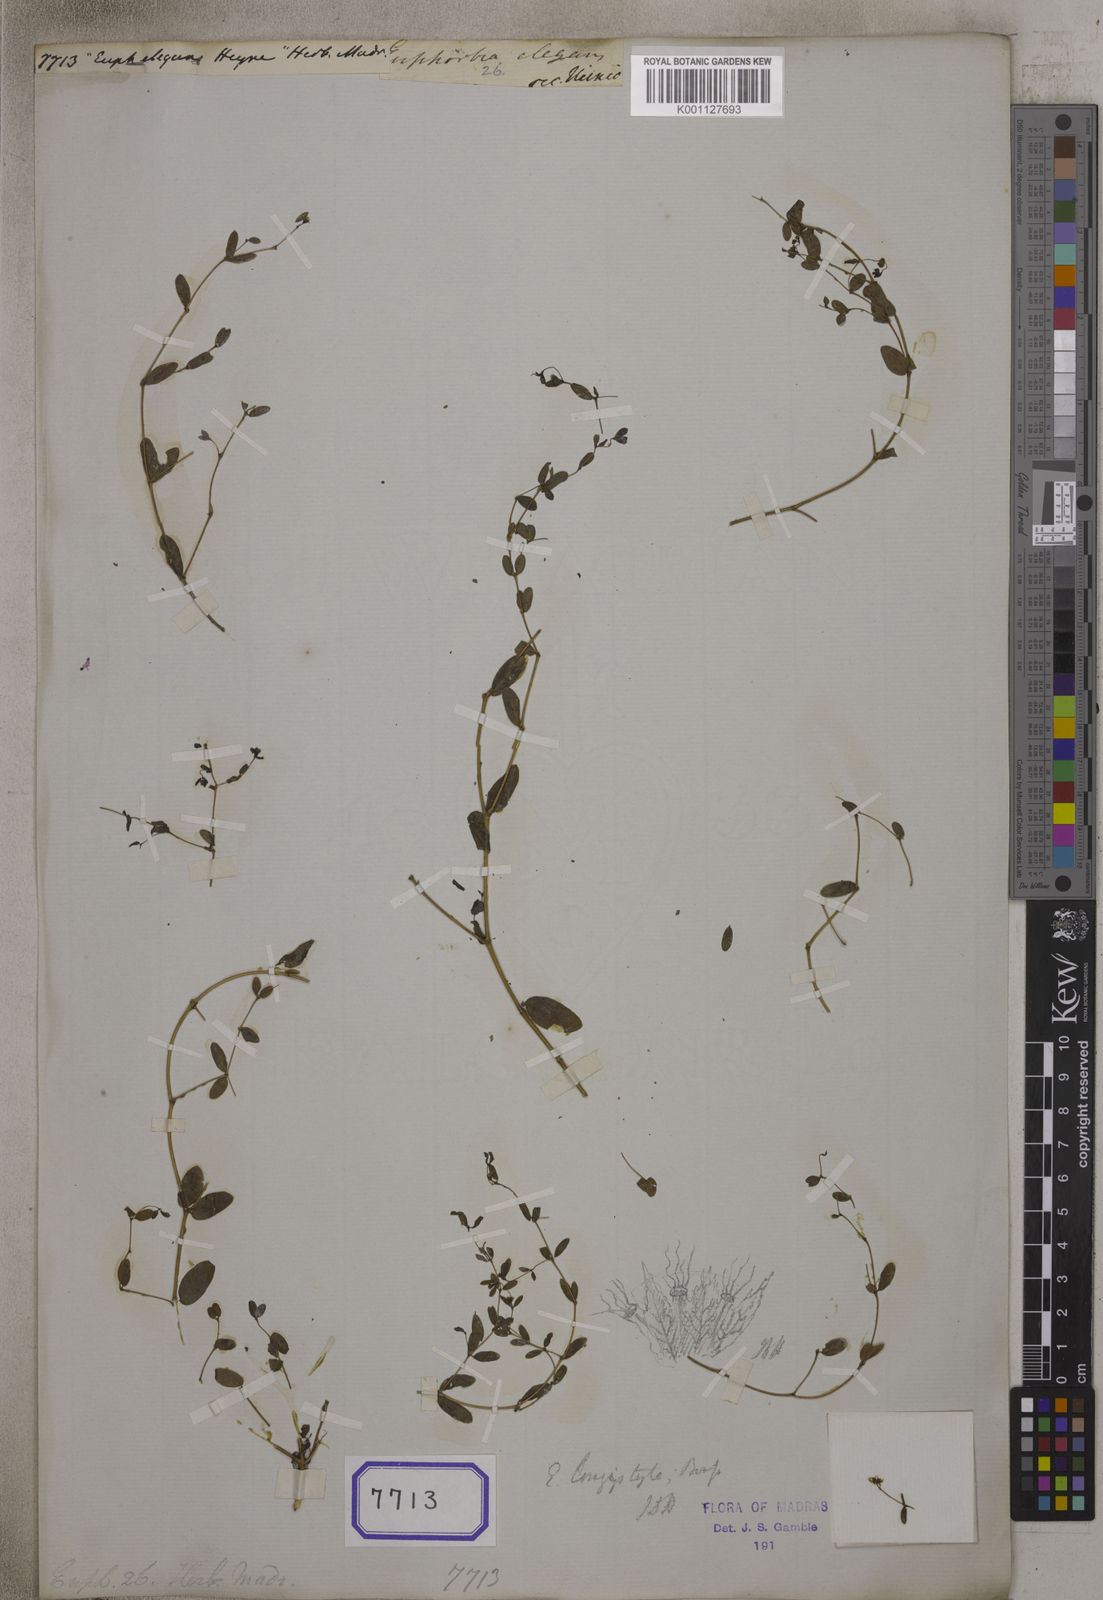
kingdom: Plantae
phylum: Tracheophyta
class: Magnoliopsida
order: Malpighiales
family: Euphorbiaceae
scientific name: Euphorbiaceae
